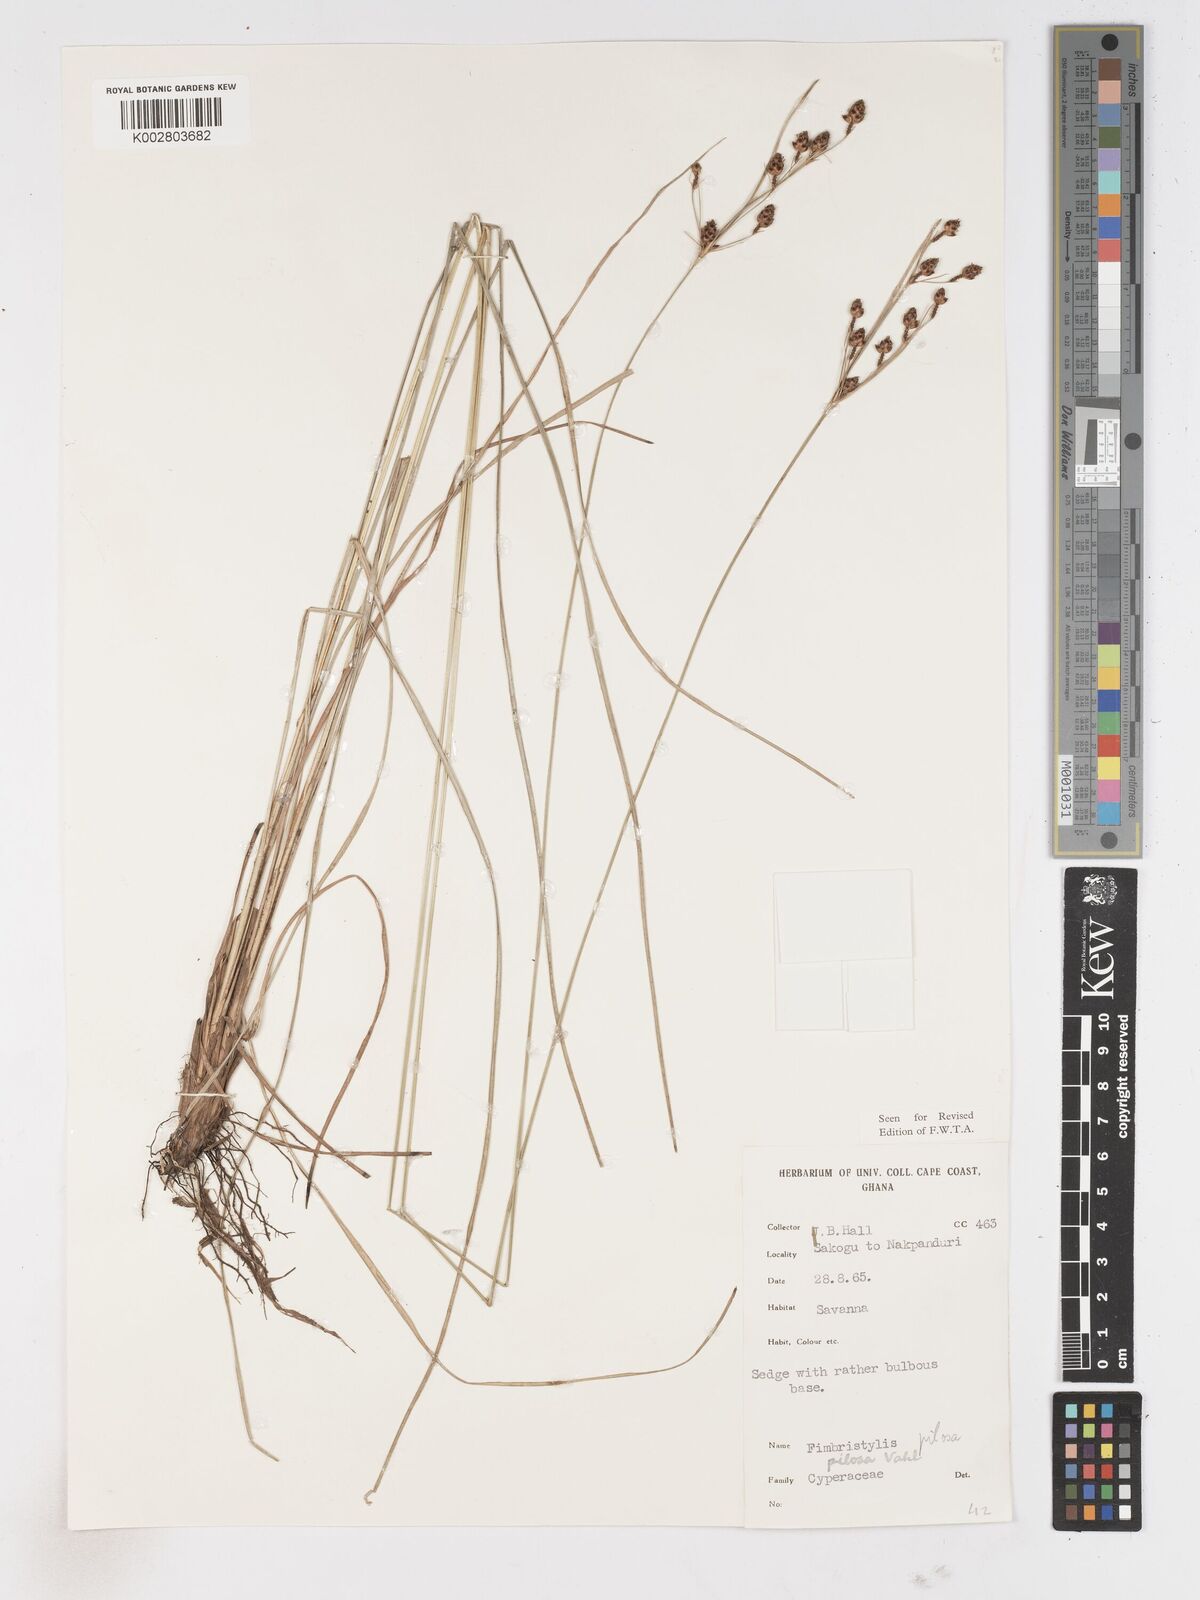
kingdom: Plantae
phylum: Tracheophyta
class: Liliopsida
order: Poales
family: Cyperaceae
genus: Fimbristylis
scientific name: Fimbristylis pilosa
